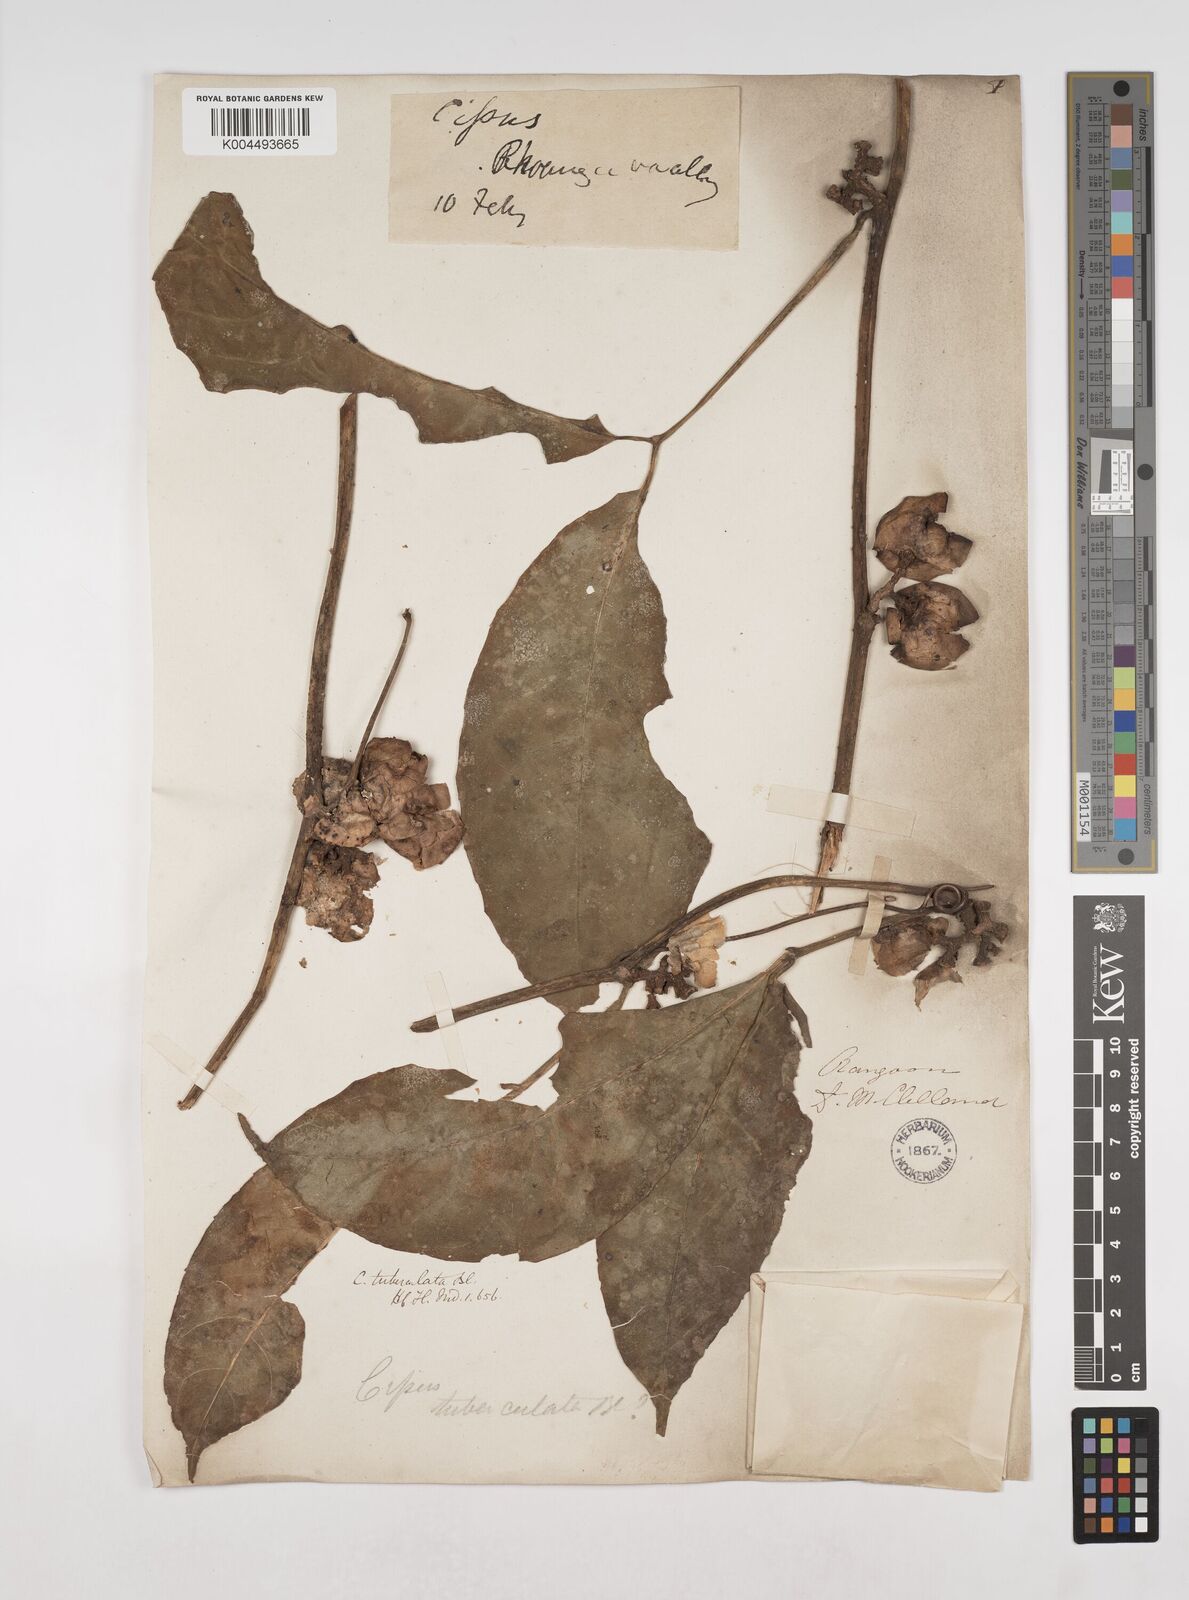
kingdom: Plantae
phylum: Tracheophyta
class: Magnoliopsida
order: Vitales
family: Vitaceae
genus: Tetrastigma
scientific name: Tetrastigma
